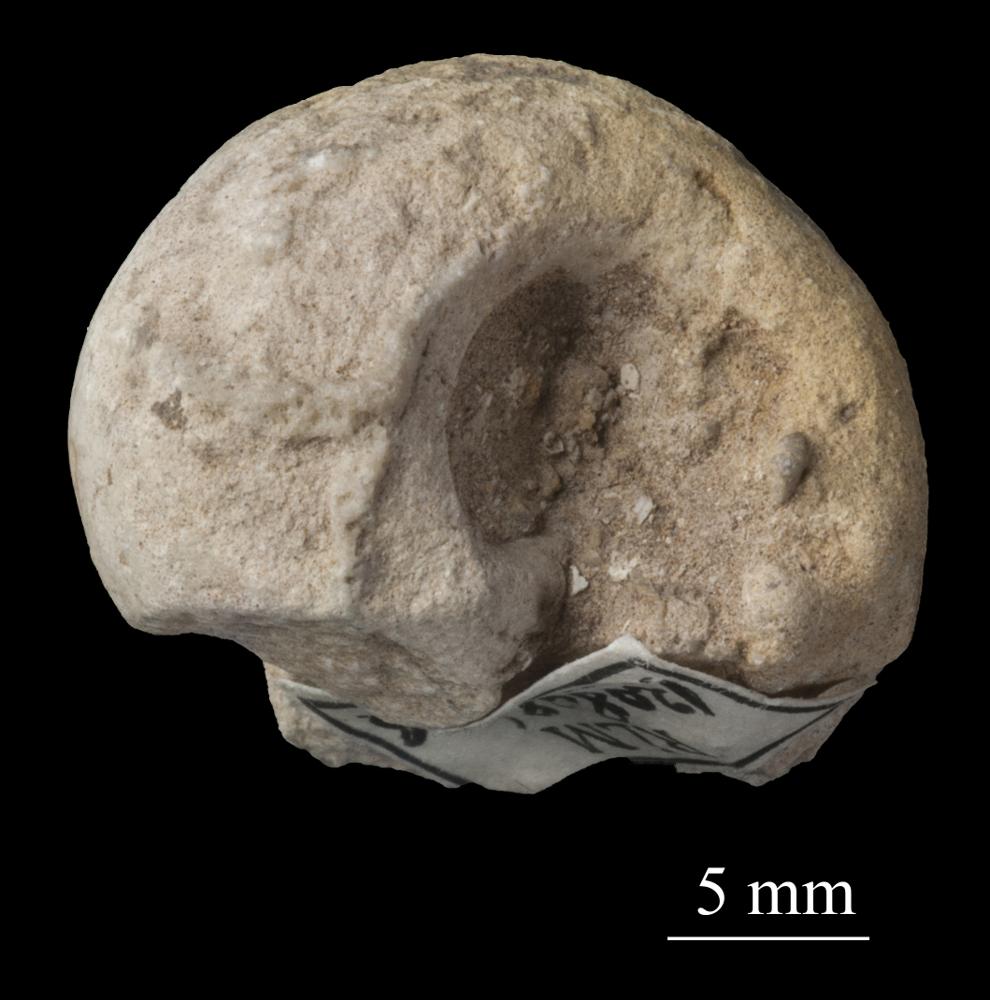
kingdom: Animalia
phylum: Mollusca
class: Gastropoda
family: Bellerophontidae
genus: Bellerophon
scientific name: Bellerophon
